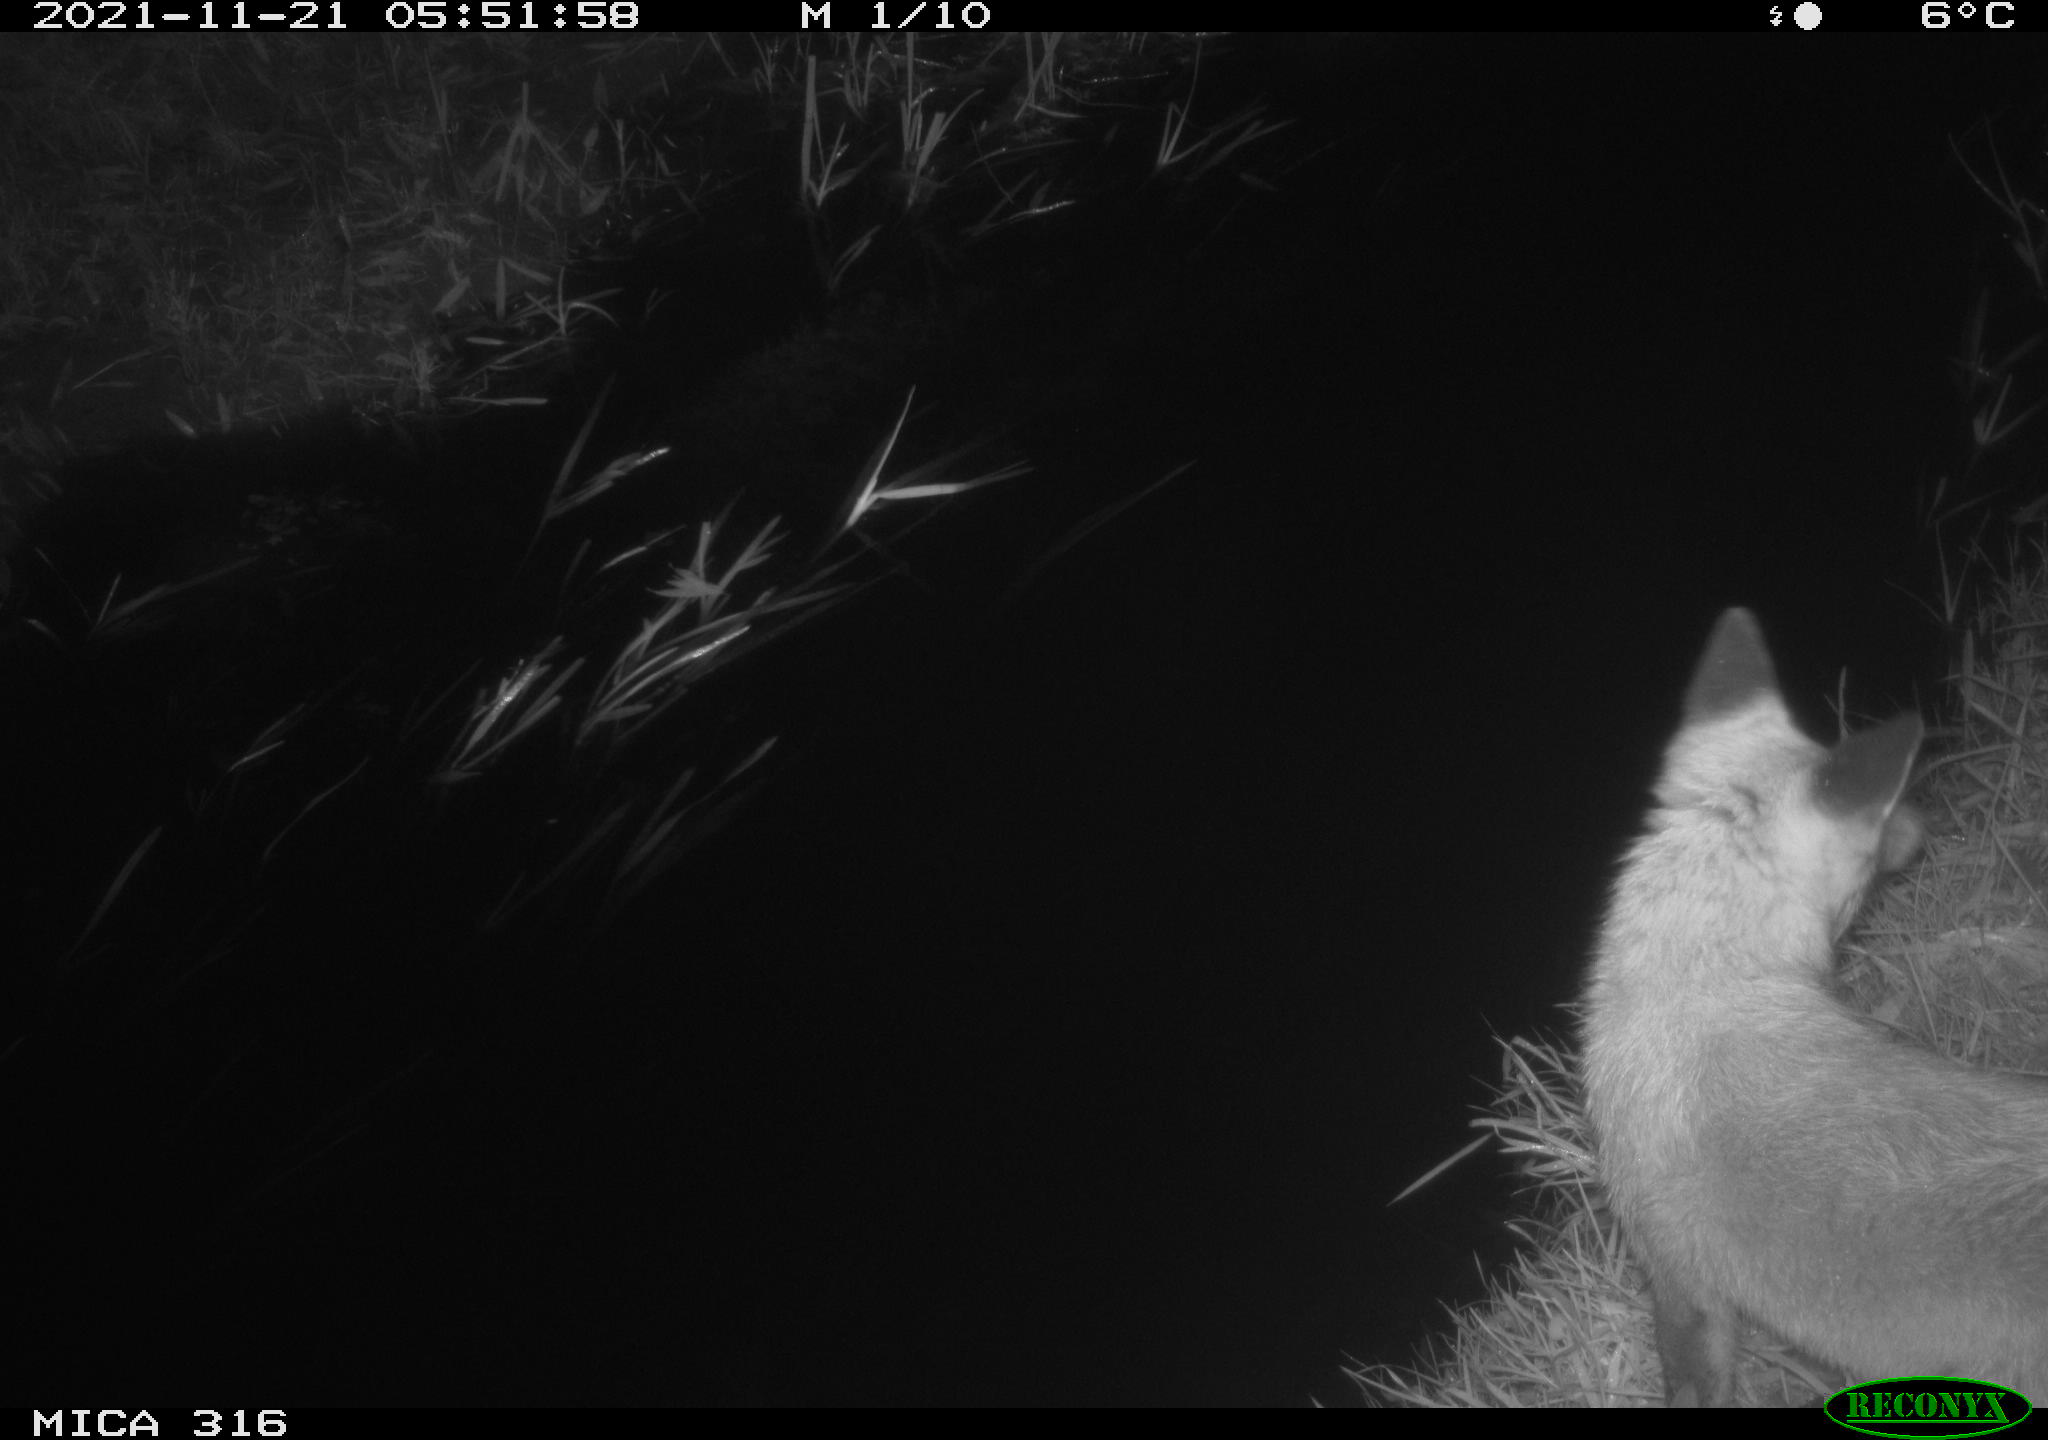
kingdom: Animalia
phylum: Chordata
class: Mammalia
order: Carnivora
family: Canidae
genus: Vulpes
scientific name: Vulpes vulpes
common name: Red fox
